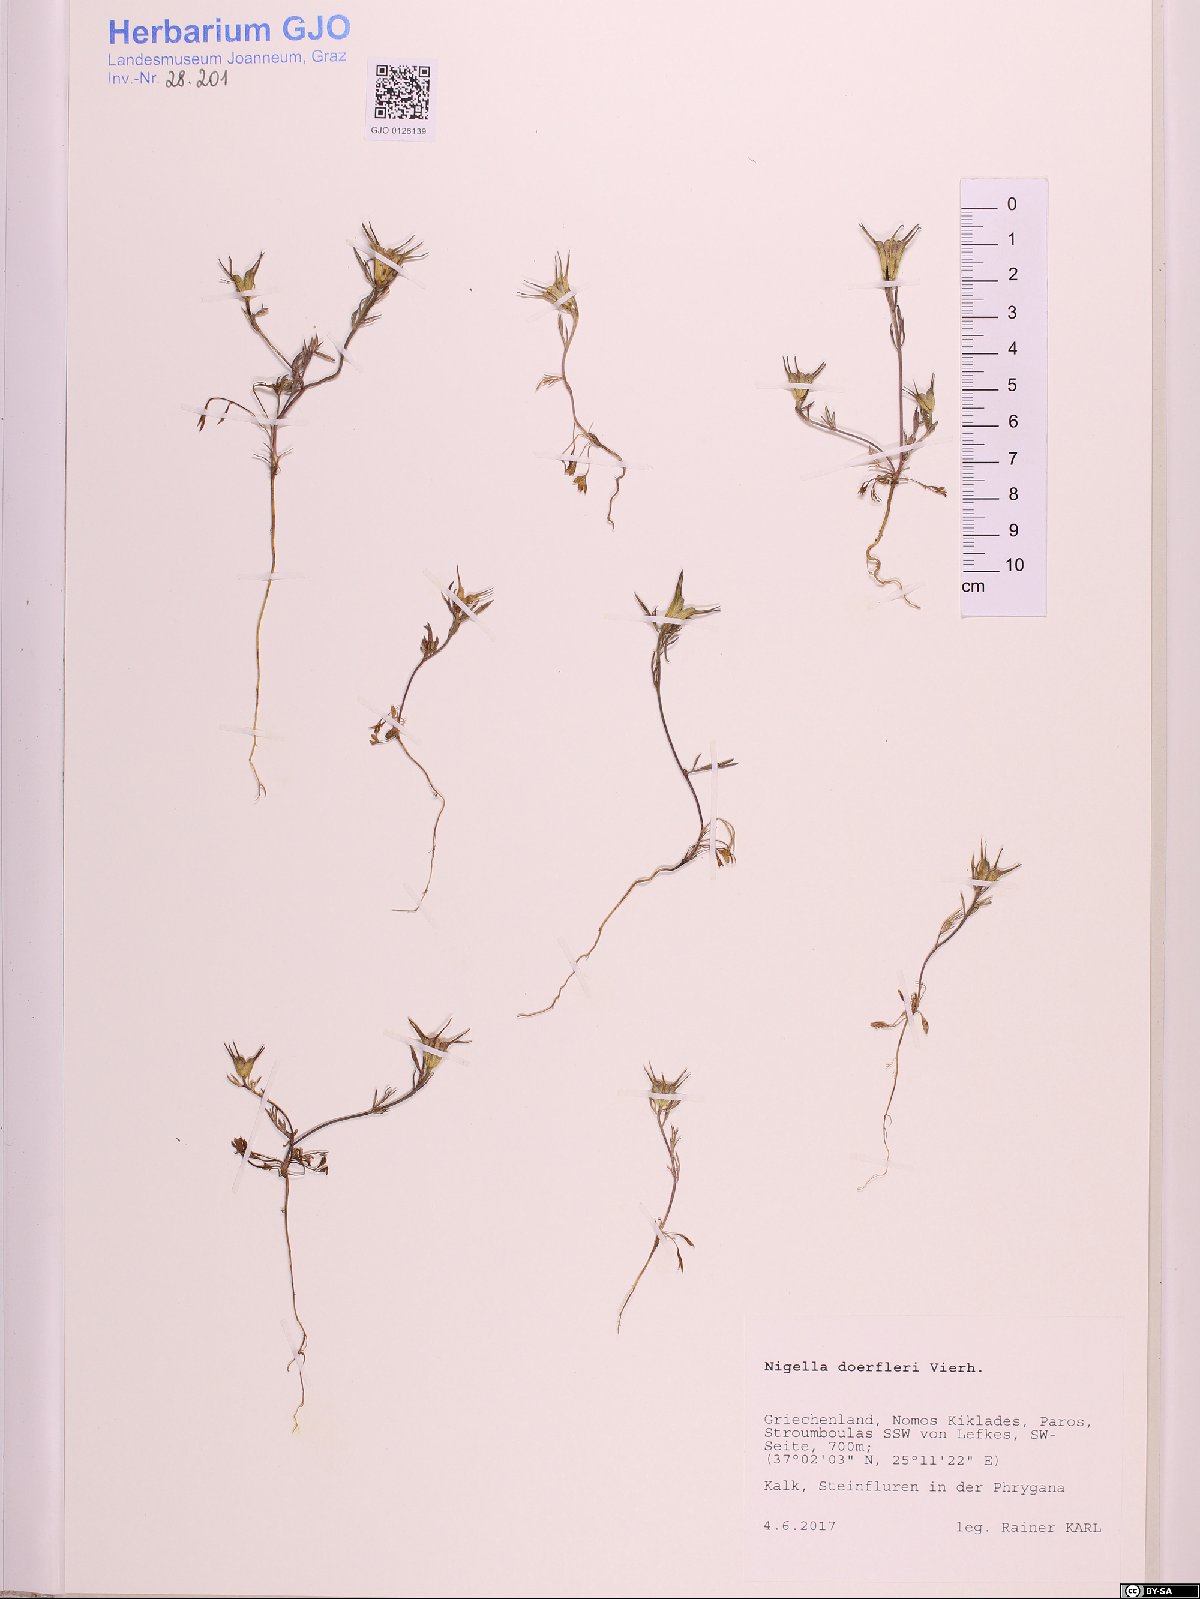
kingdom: Plantae
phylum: Tracheophyta
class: Magnoliopsida
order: Ranunculales
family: Ranunculaceae
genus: Nigella
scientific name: Nigella doerfleri
